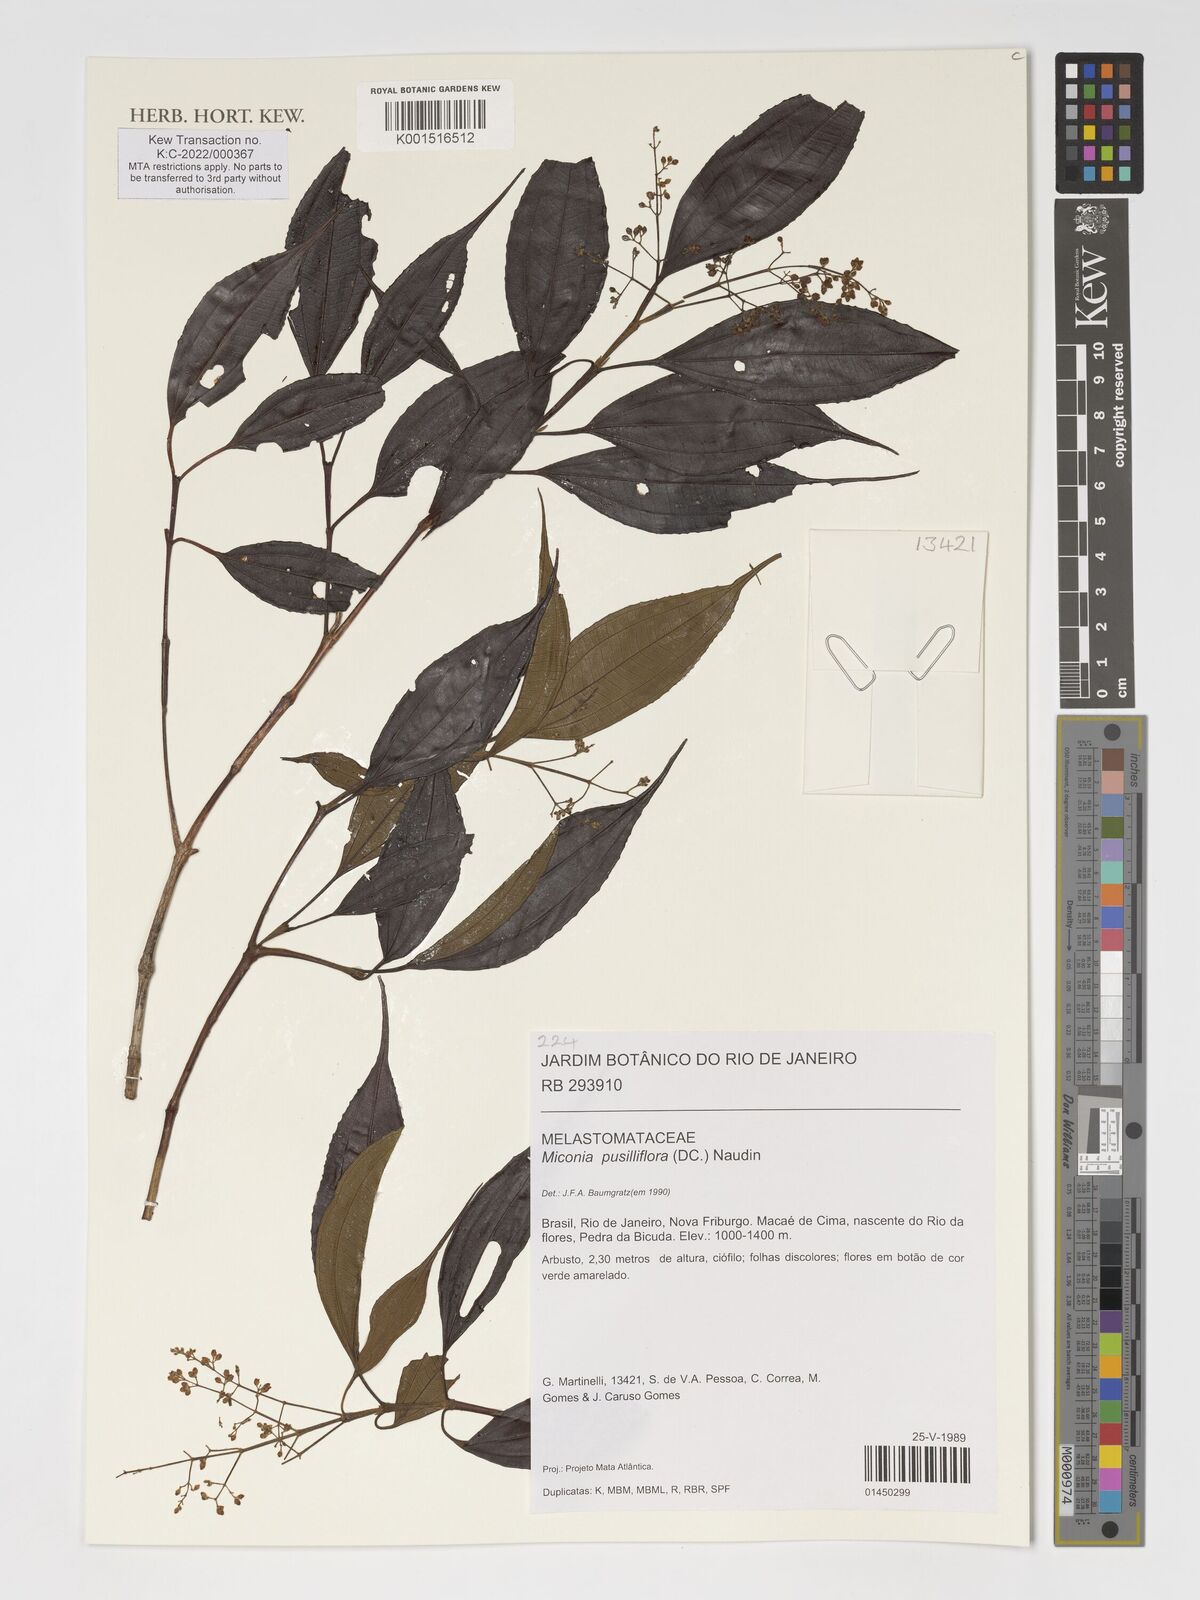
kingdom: Plantae
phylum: Tracheophyta
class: Magnoliopsida
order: Myrtales
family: Melastomataceae
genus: Miconia
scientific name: Miconia pusilliflora
